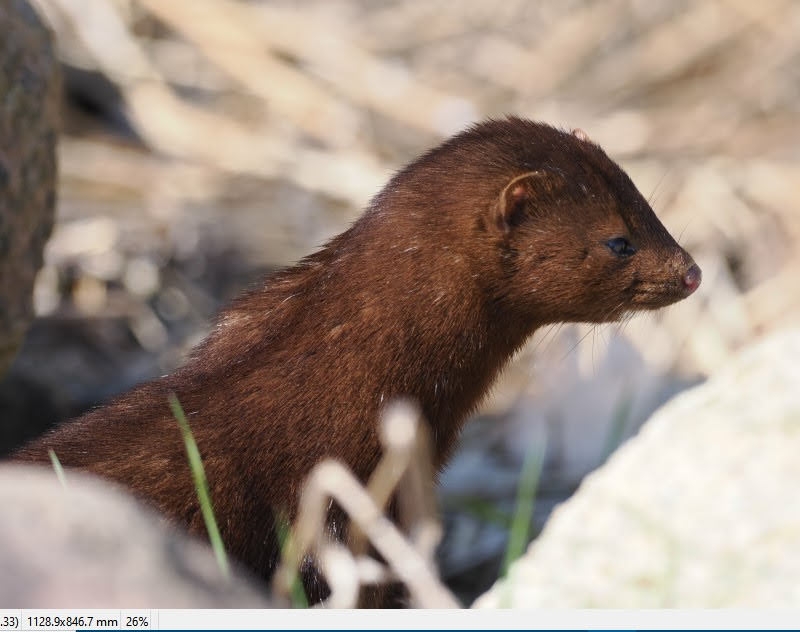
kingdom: Animalia
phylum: Chordata
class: Mammalia
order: Carnivora
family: Mustelidae
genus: Mustela
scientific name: Mustela vison
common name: Mink
